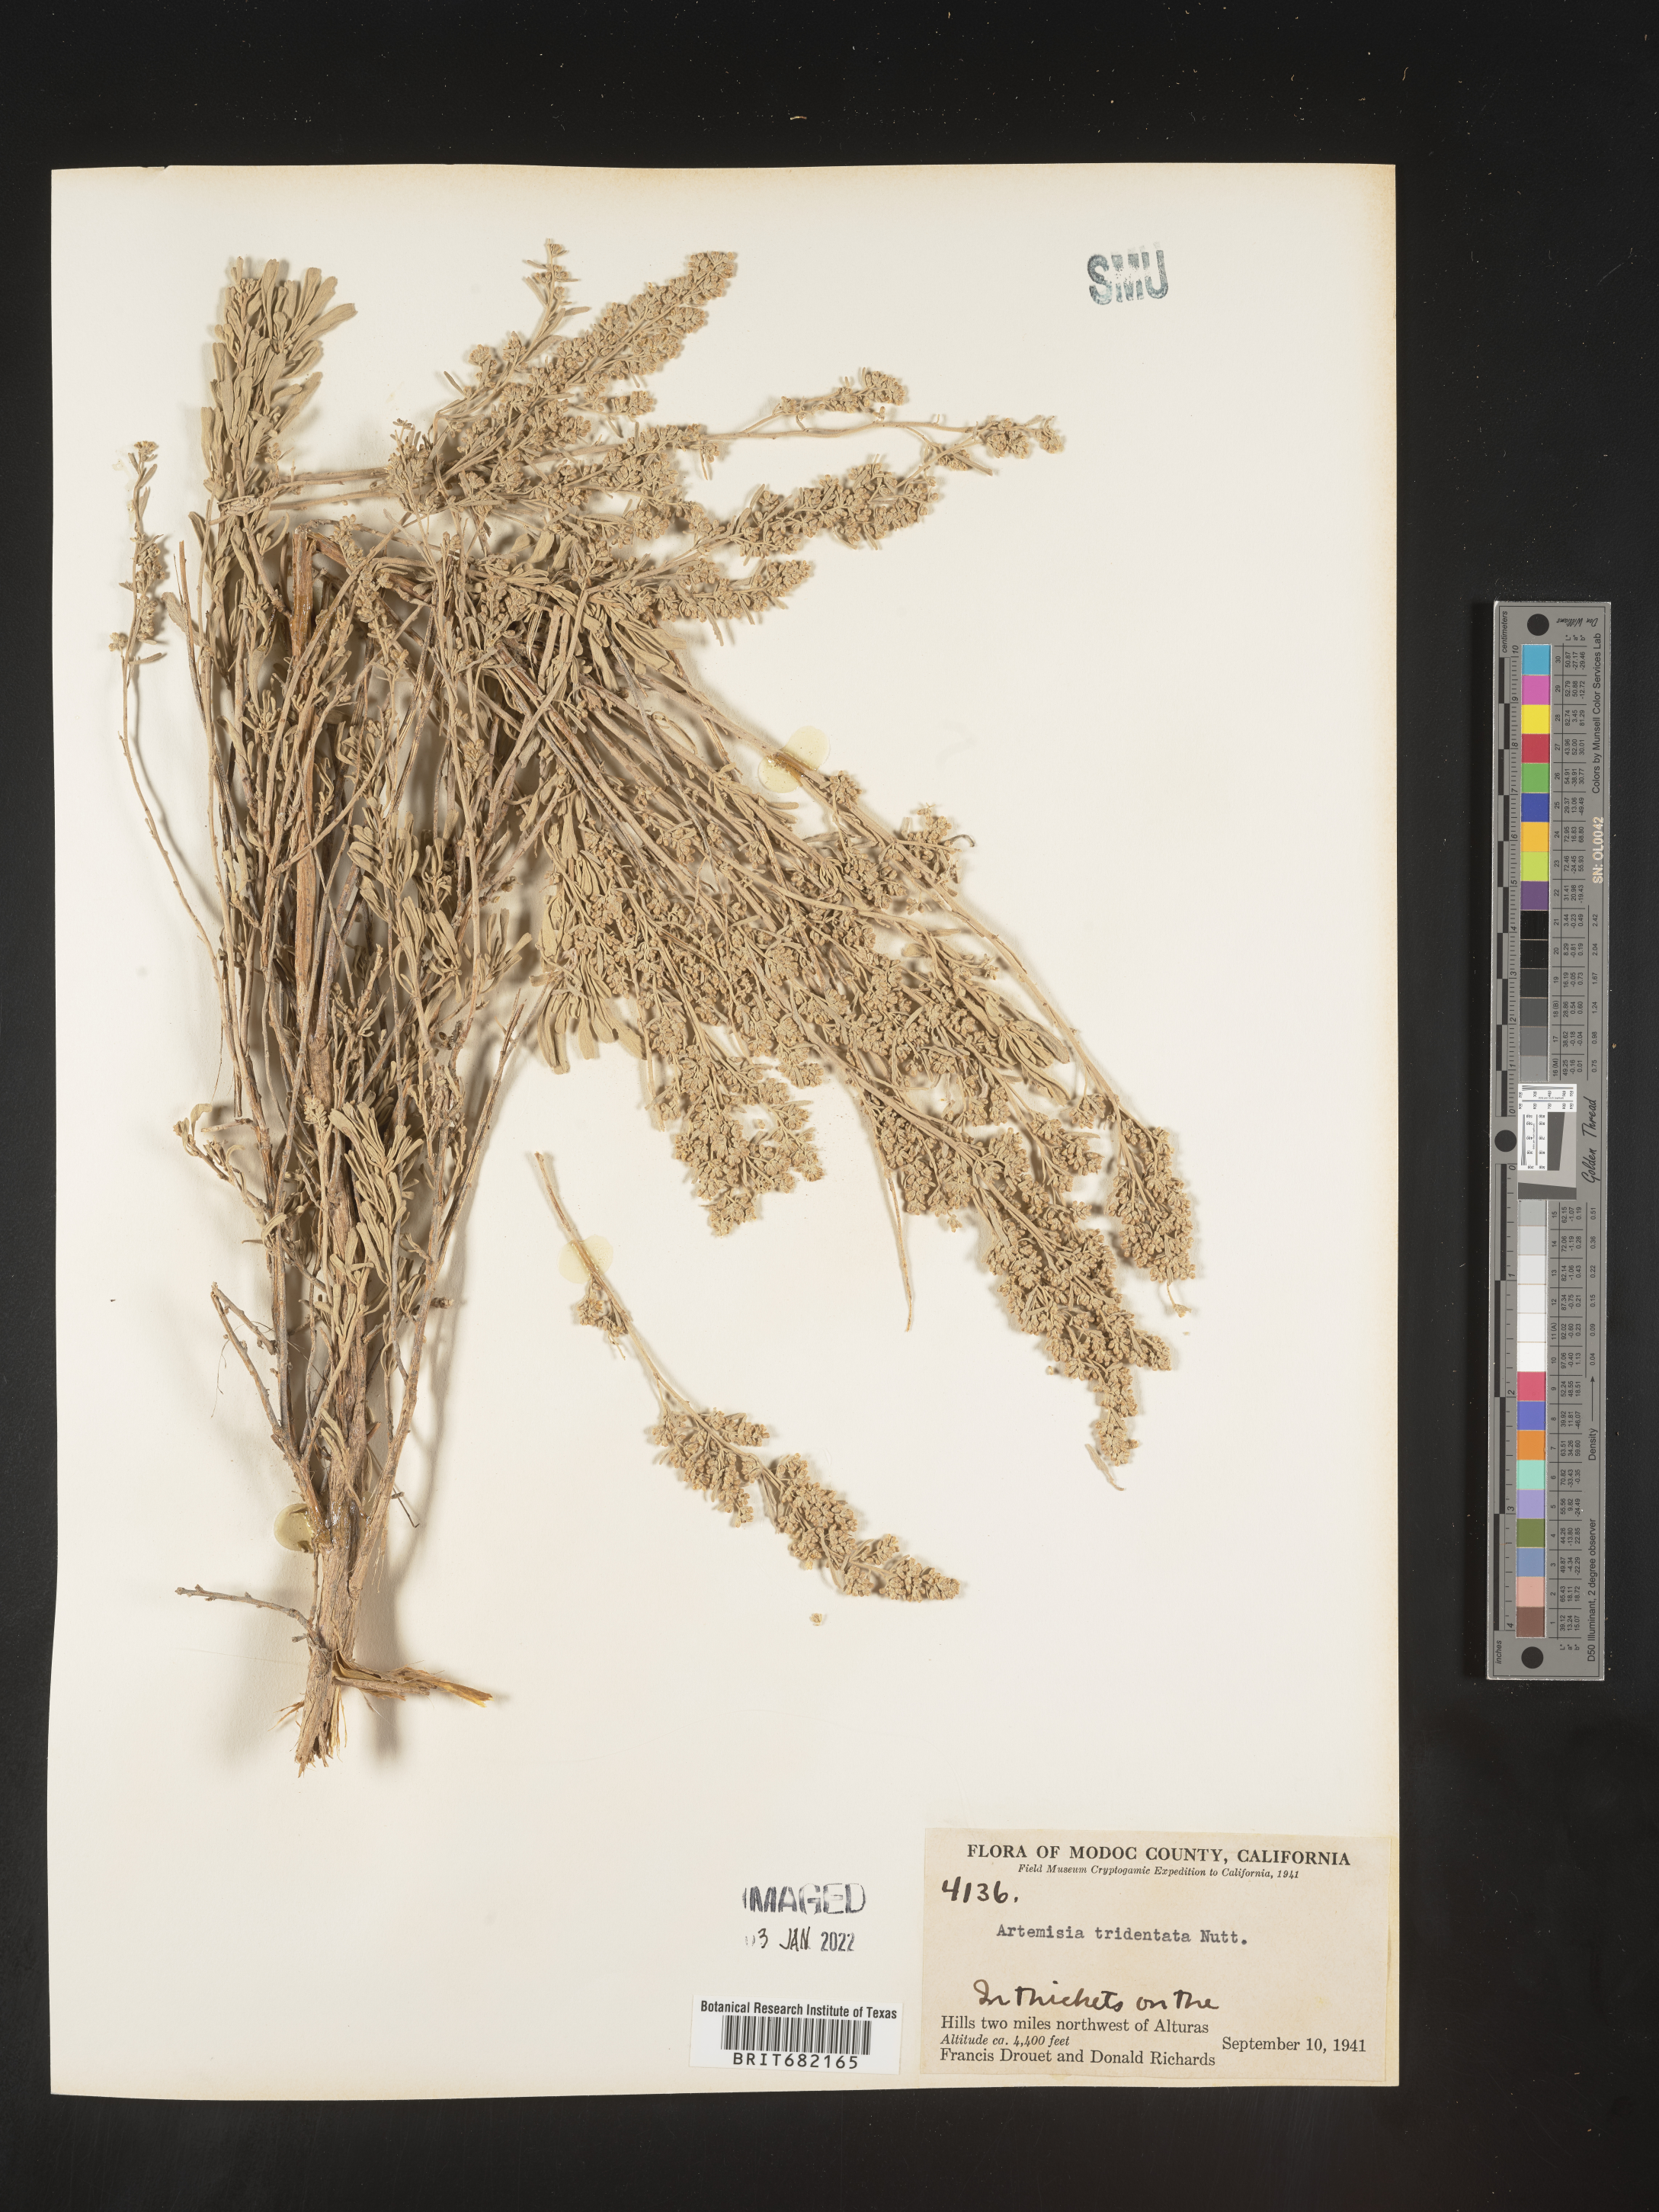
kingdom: Plantae
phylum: Tracheophyta
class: Magnoliopsida
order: Asterales
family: Asteraceae
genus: Artemisia
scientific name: Artemisia tridentata
